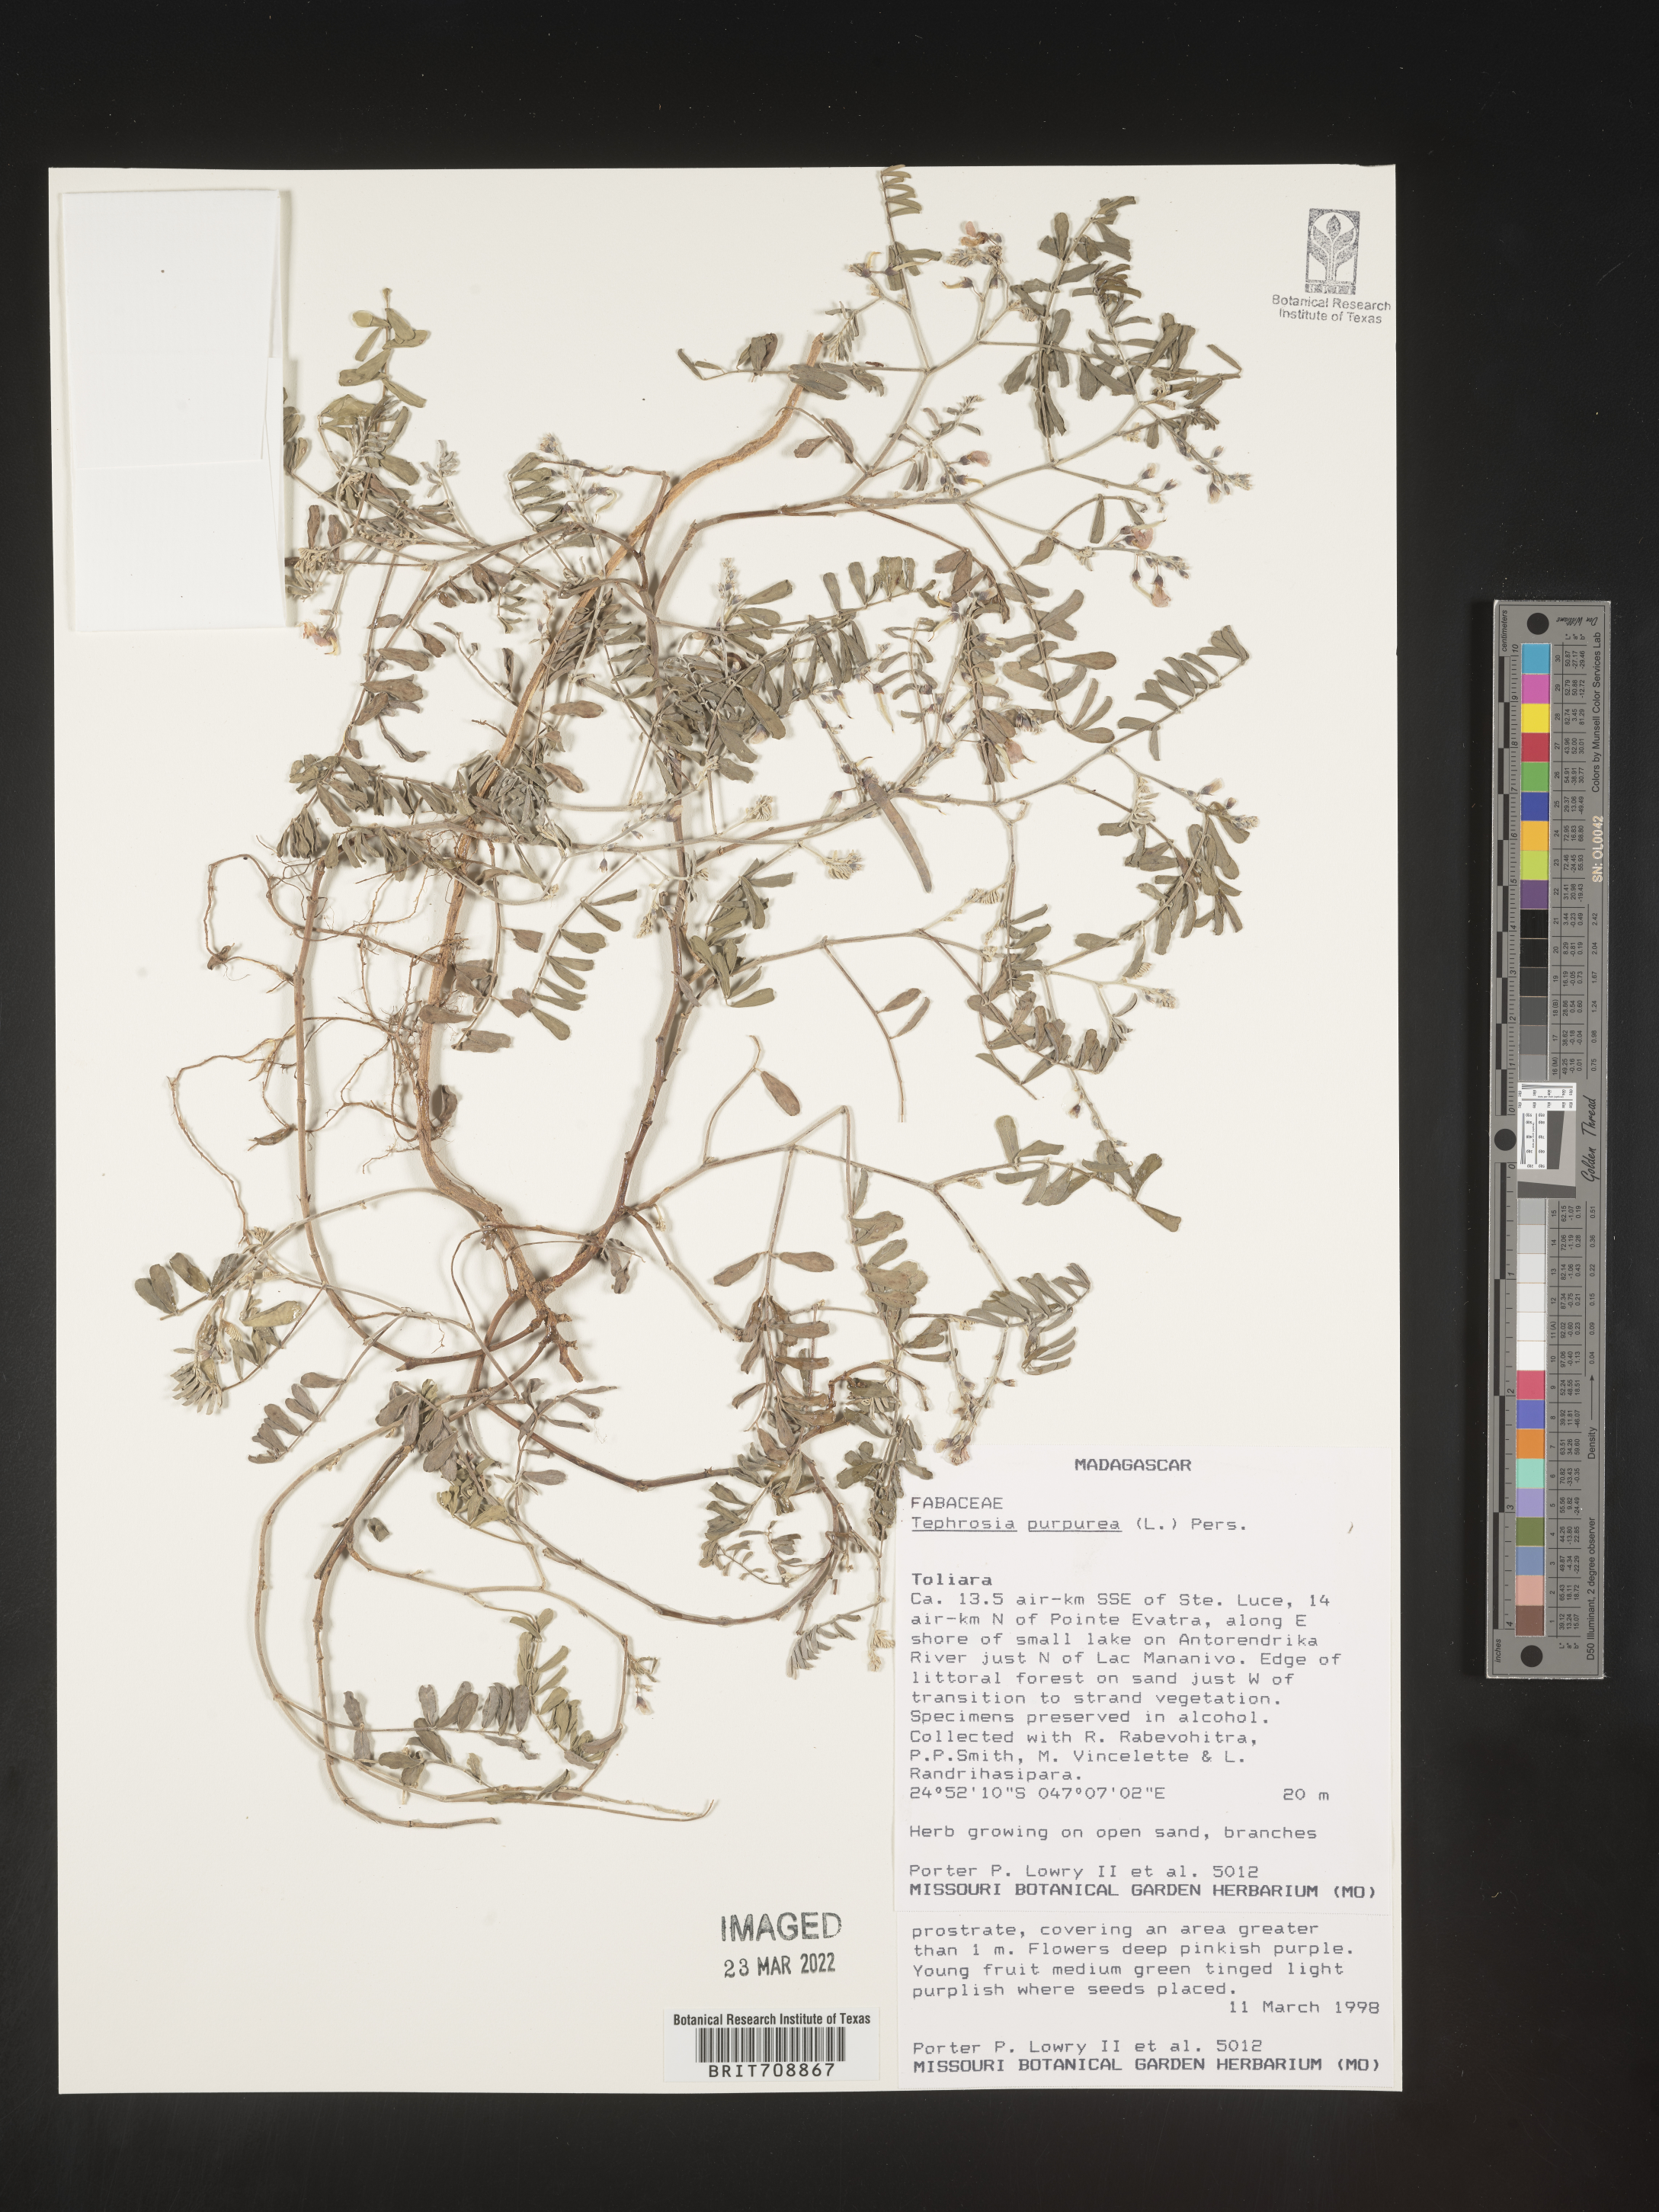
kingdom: Plantae
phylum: Tracheophyta
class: Magnoliopsida
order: Fabales
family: Fabaceae
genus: Tephrosia
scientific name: Tephrosia
